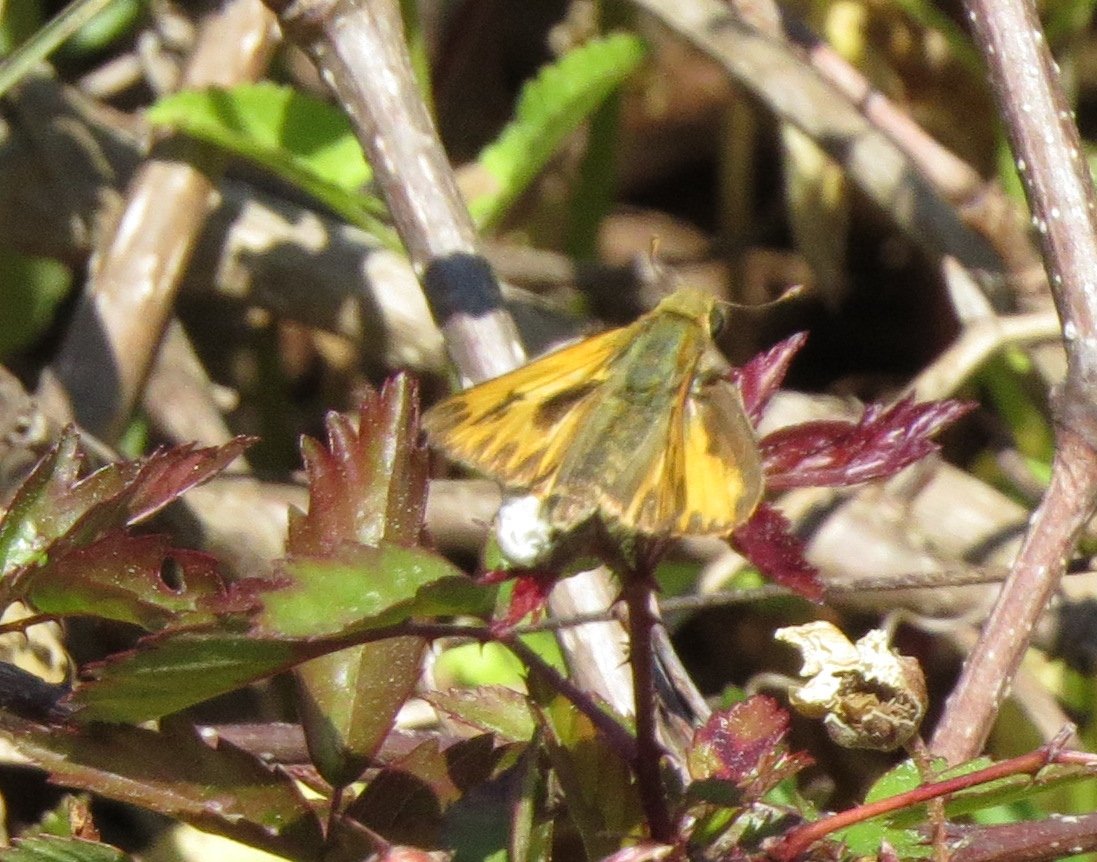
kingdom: Animalia
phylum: Arthropoda
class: Insecta
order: Lepidoptera
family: Hesperiidae
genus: Hylephila
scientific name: Hylephila phyleus
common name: Fiery Skipper
